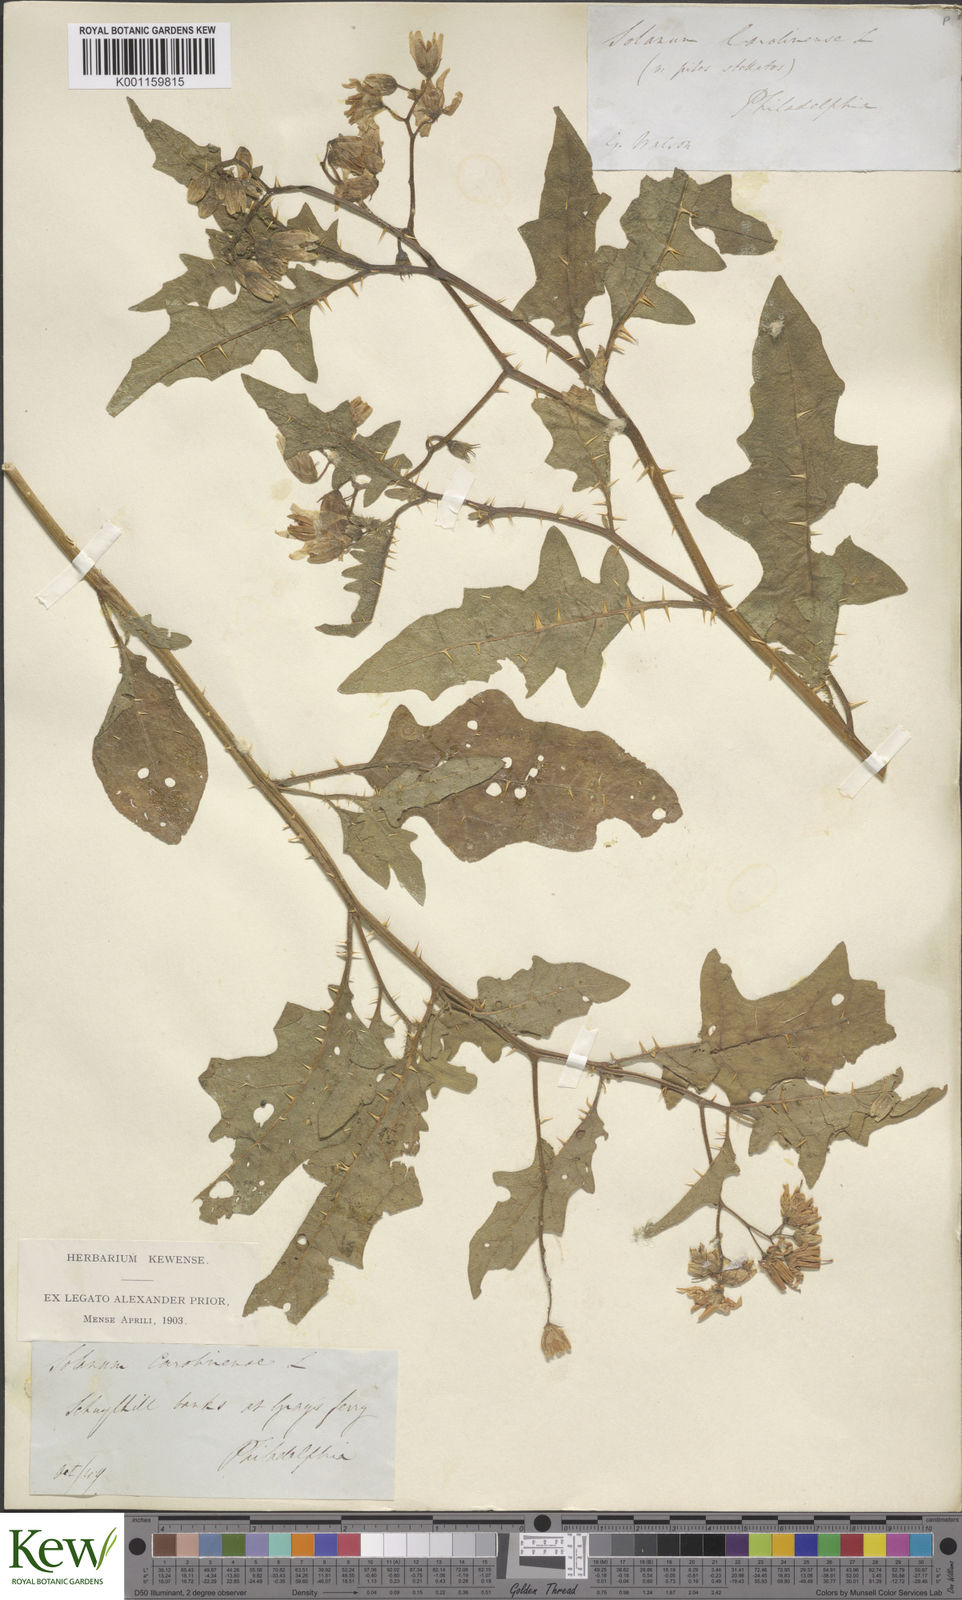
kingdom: Plantae
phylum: Tracheophyta
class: Magnoliopsida
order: Solanales
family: Solanaceae
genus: Solanum
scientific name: Solanum carolinense
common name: Horse-nettle
